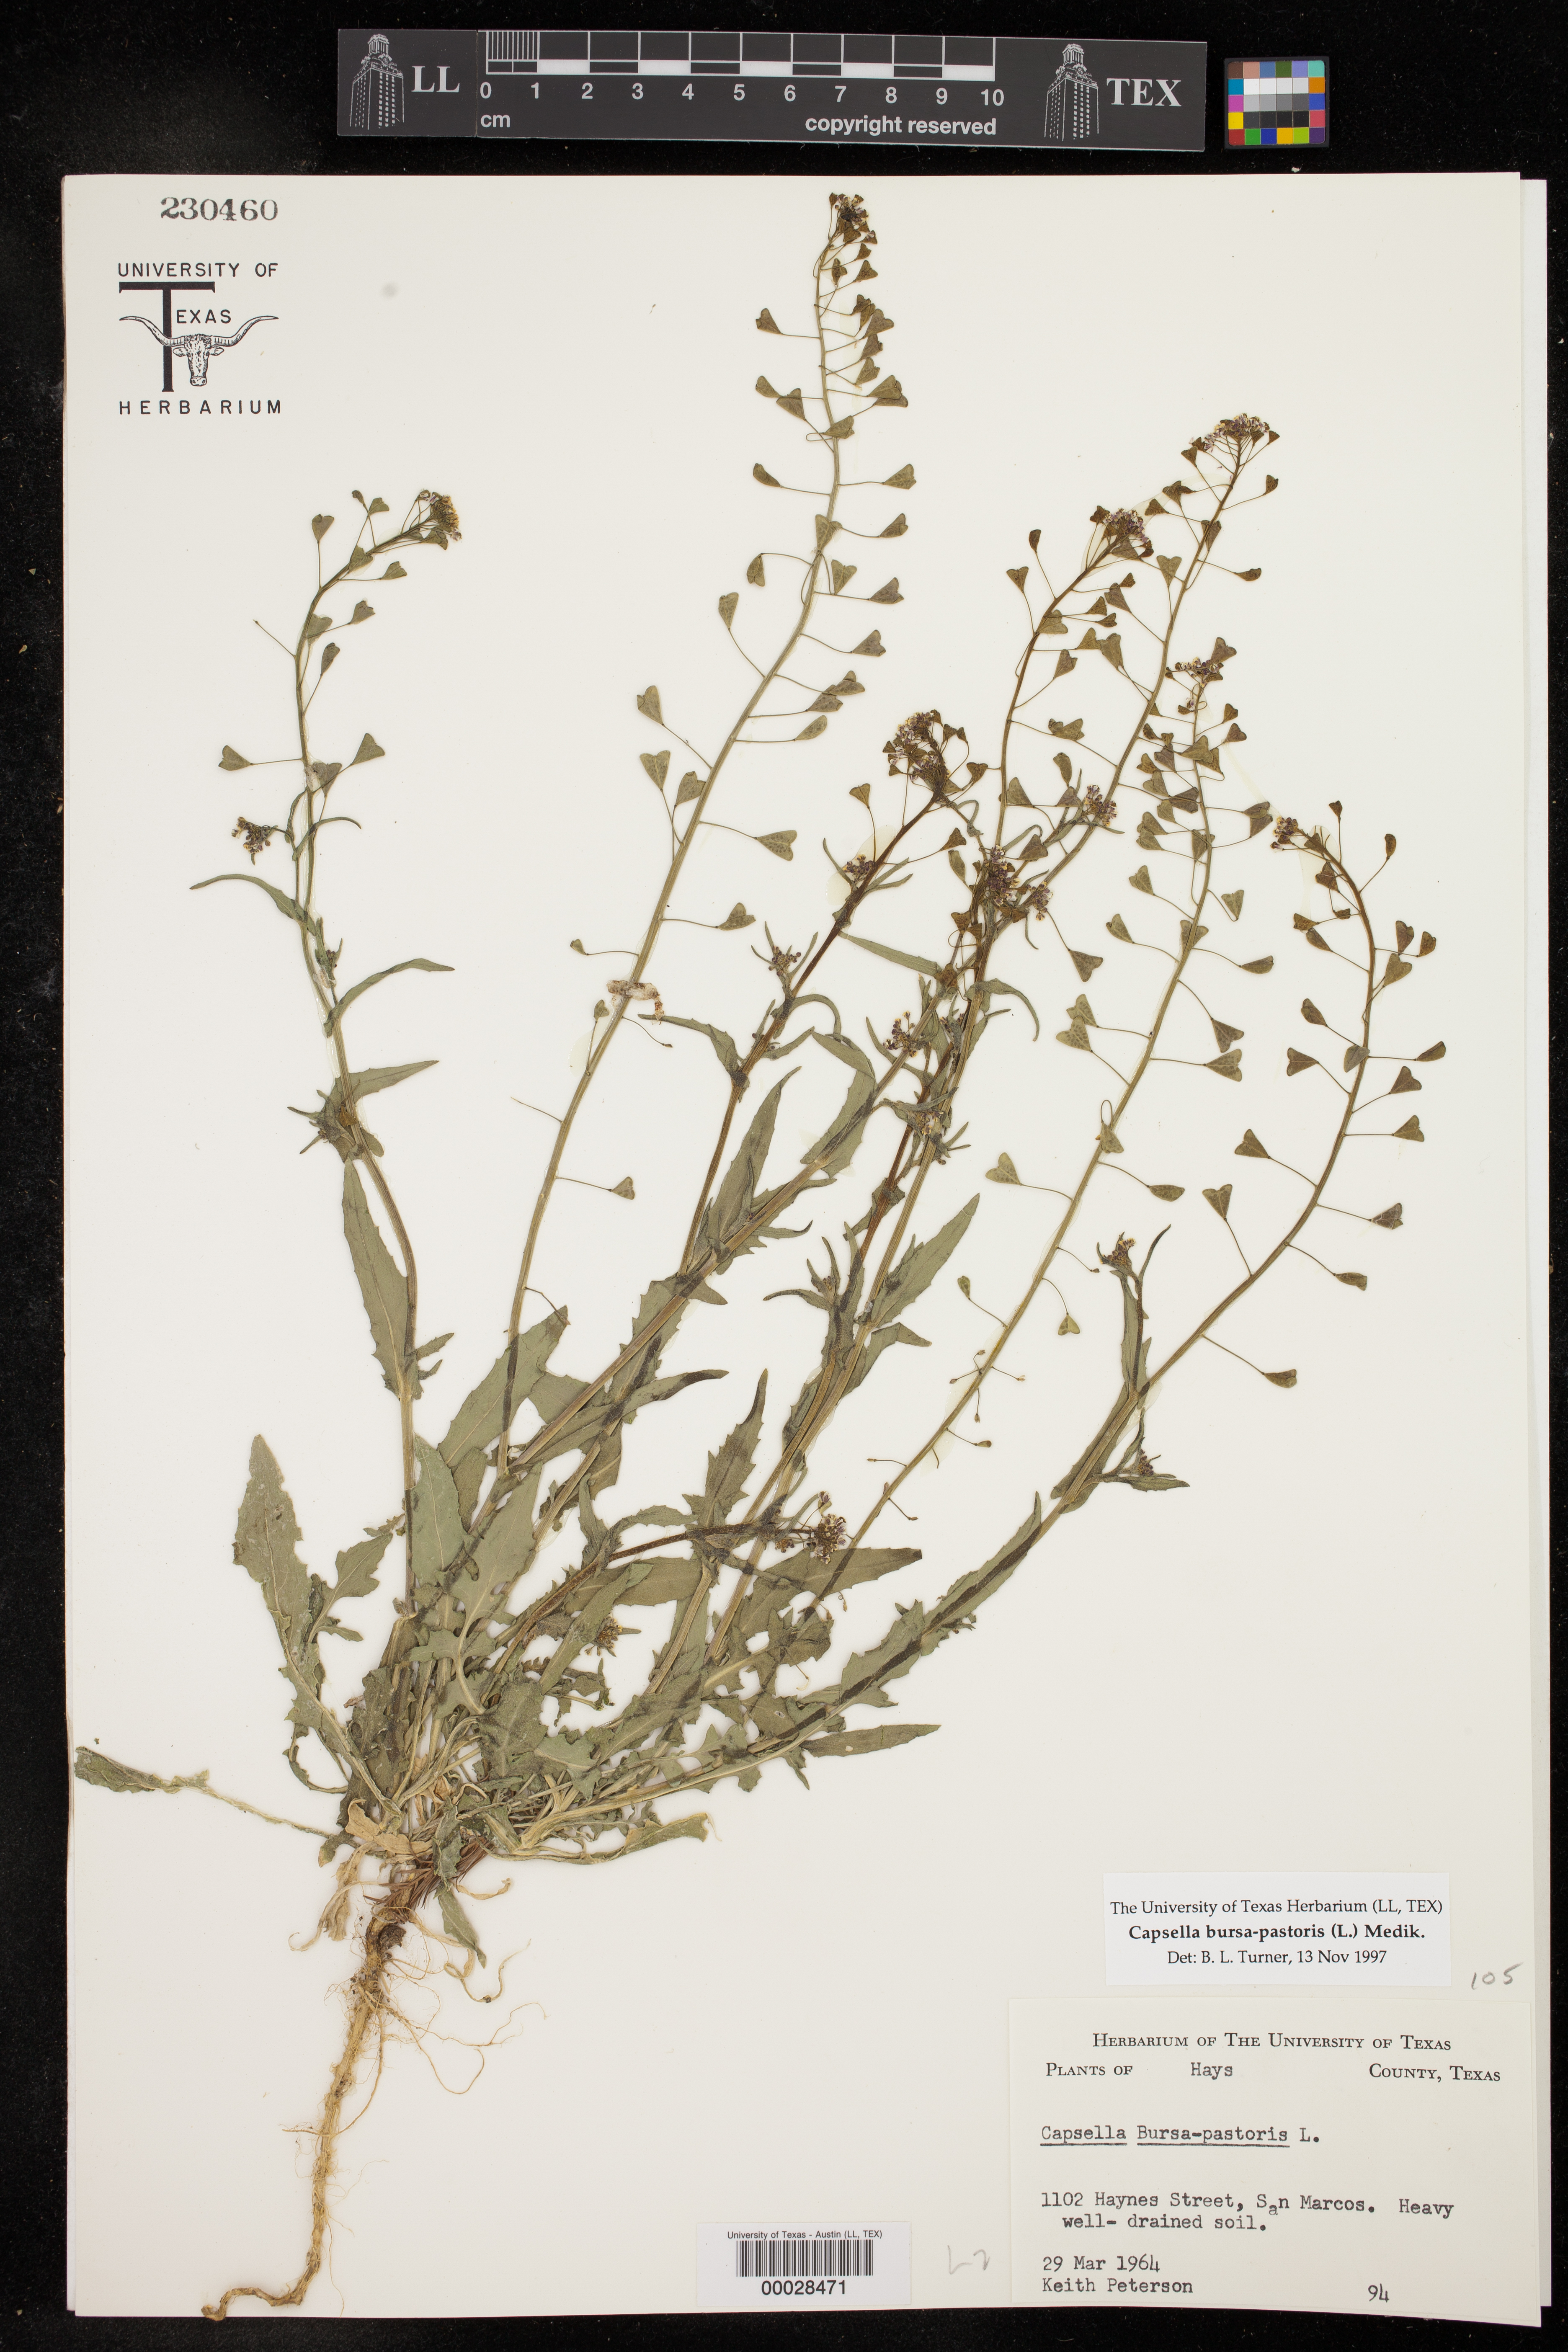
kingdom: Plantae
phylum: Tracheophyta
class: Magnoliopsida
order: Brassicales
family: Brassicaceae
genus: Capsella
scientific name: Capsella bursa-pastoris
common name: Shepherd's purse
